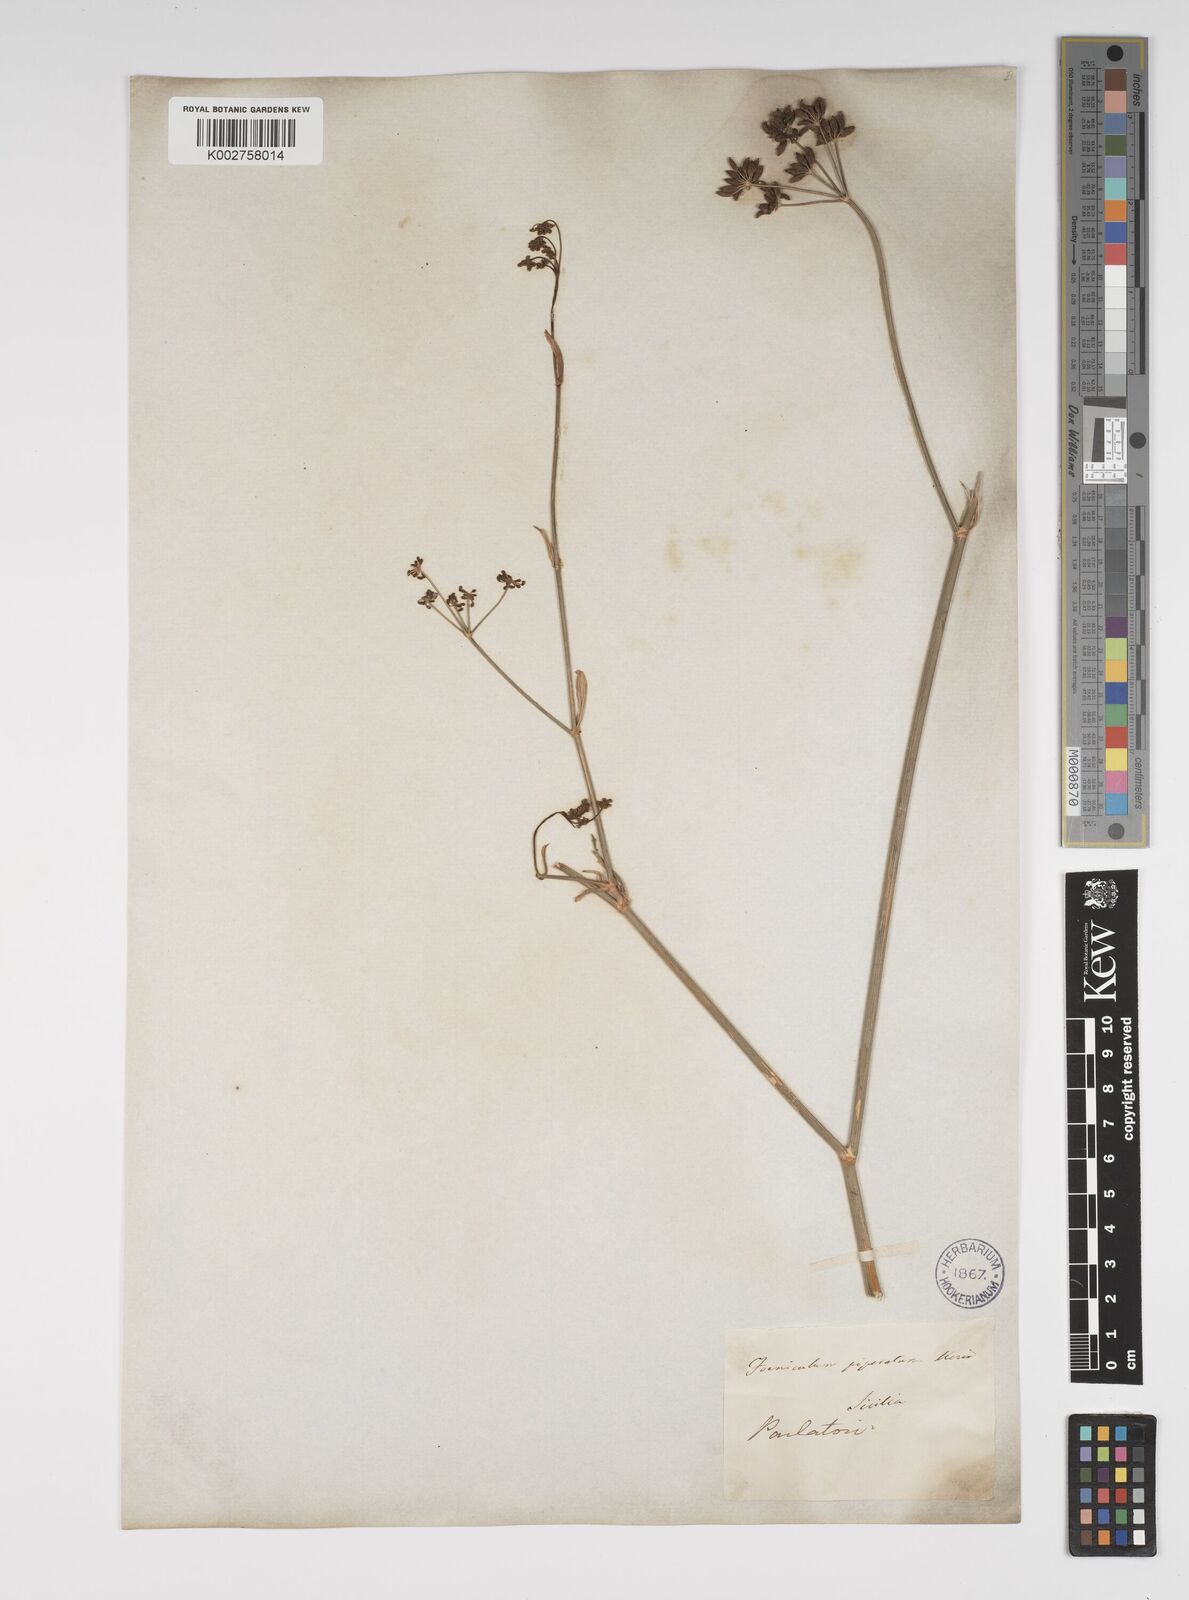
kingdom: Plantae
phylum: Tracheophyta
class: Magnoliopsida
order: Apiales
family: Apiaceae
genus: Foeniculum
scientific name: Foeniculum vulgare
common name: Fennel
